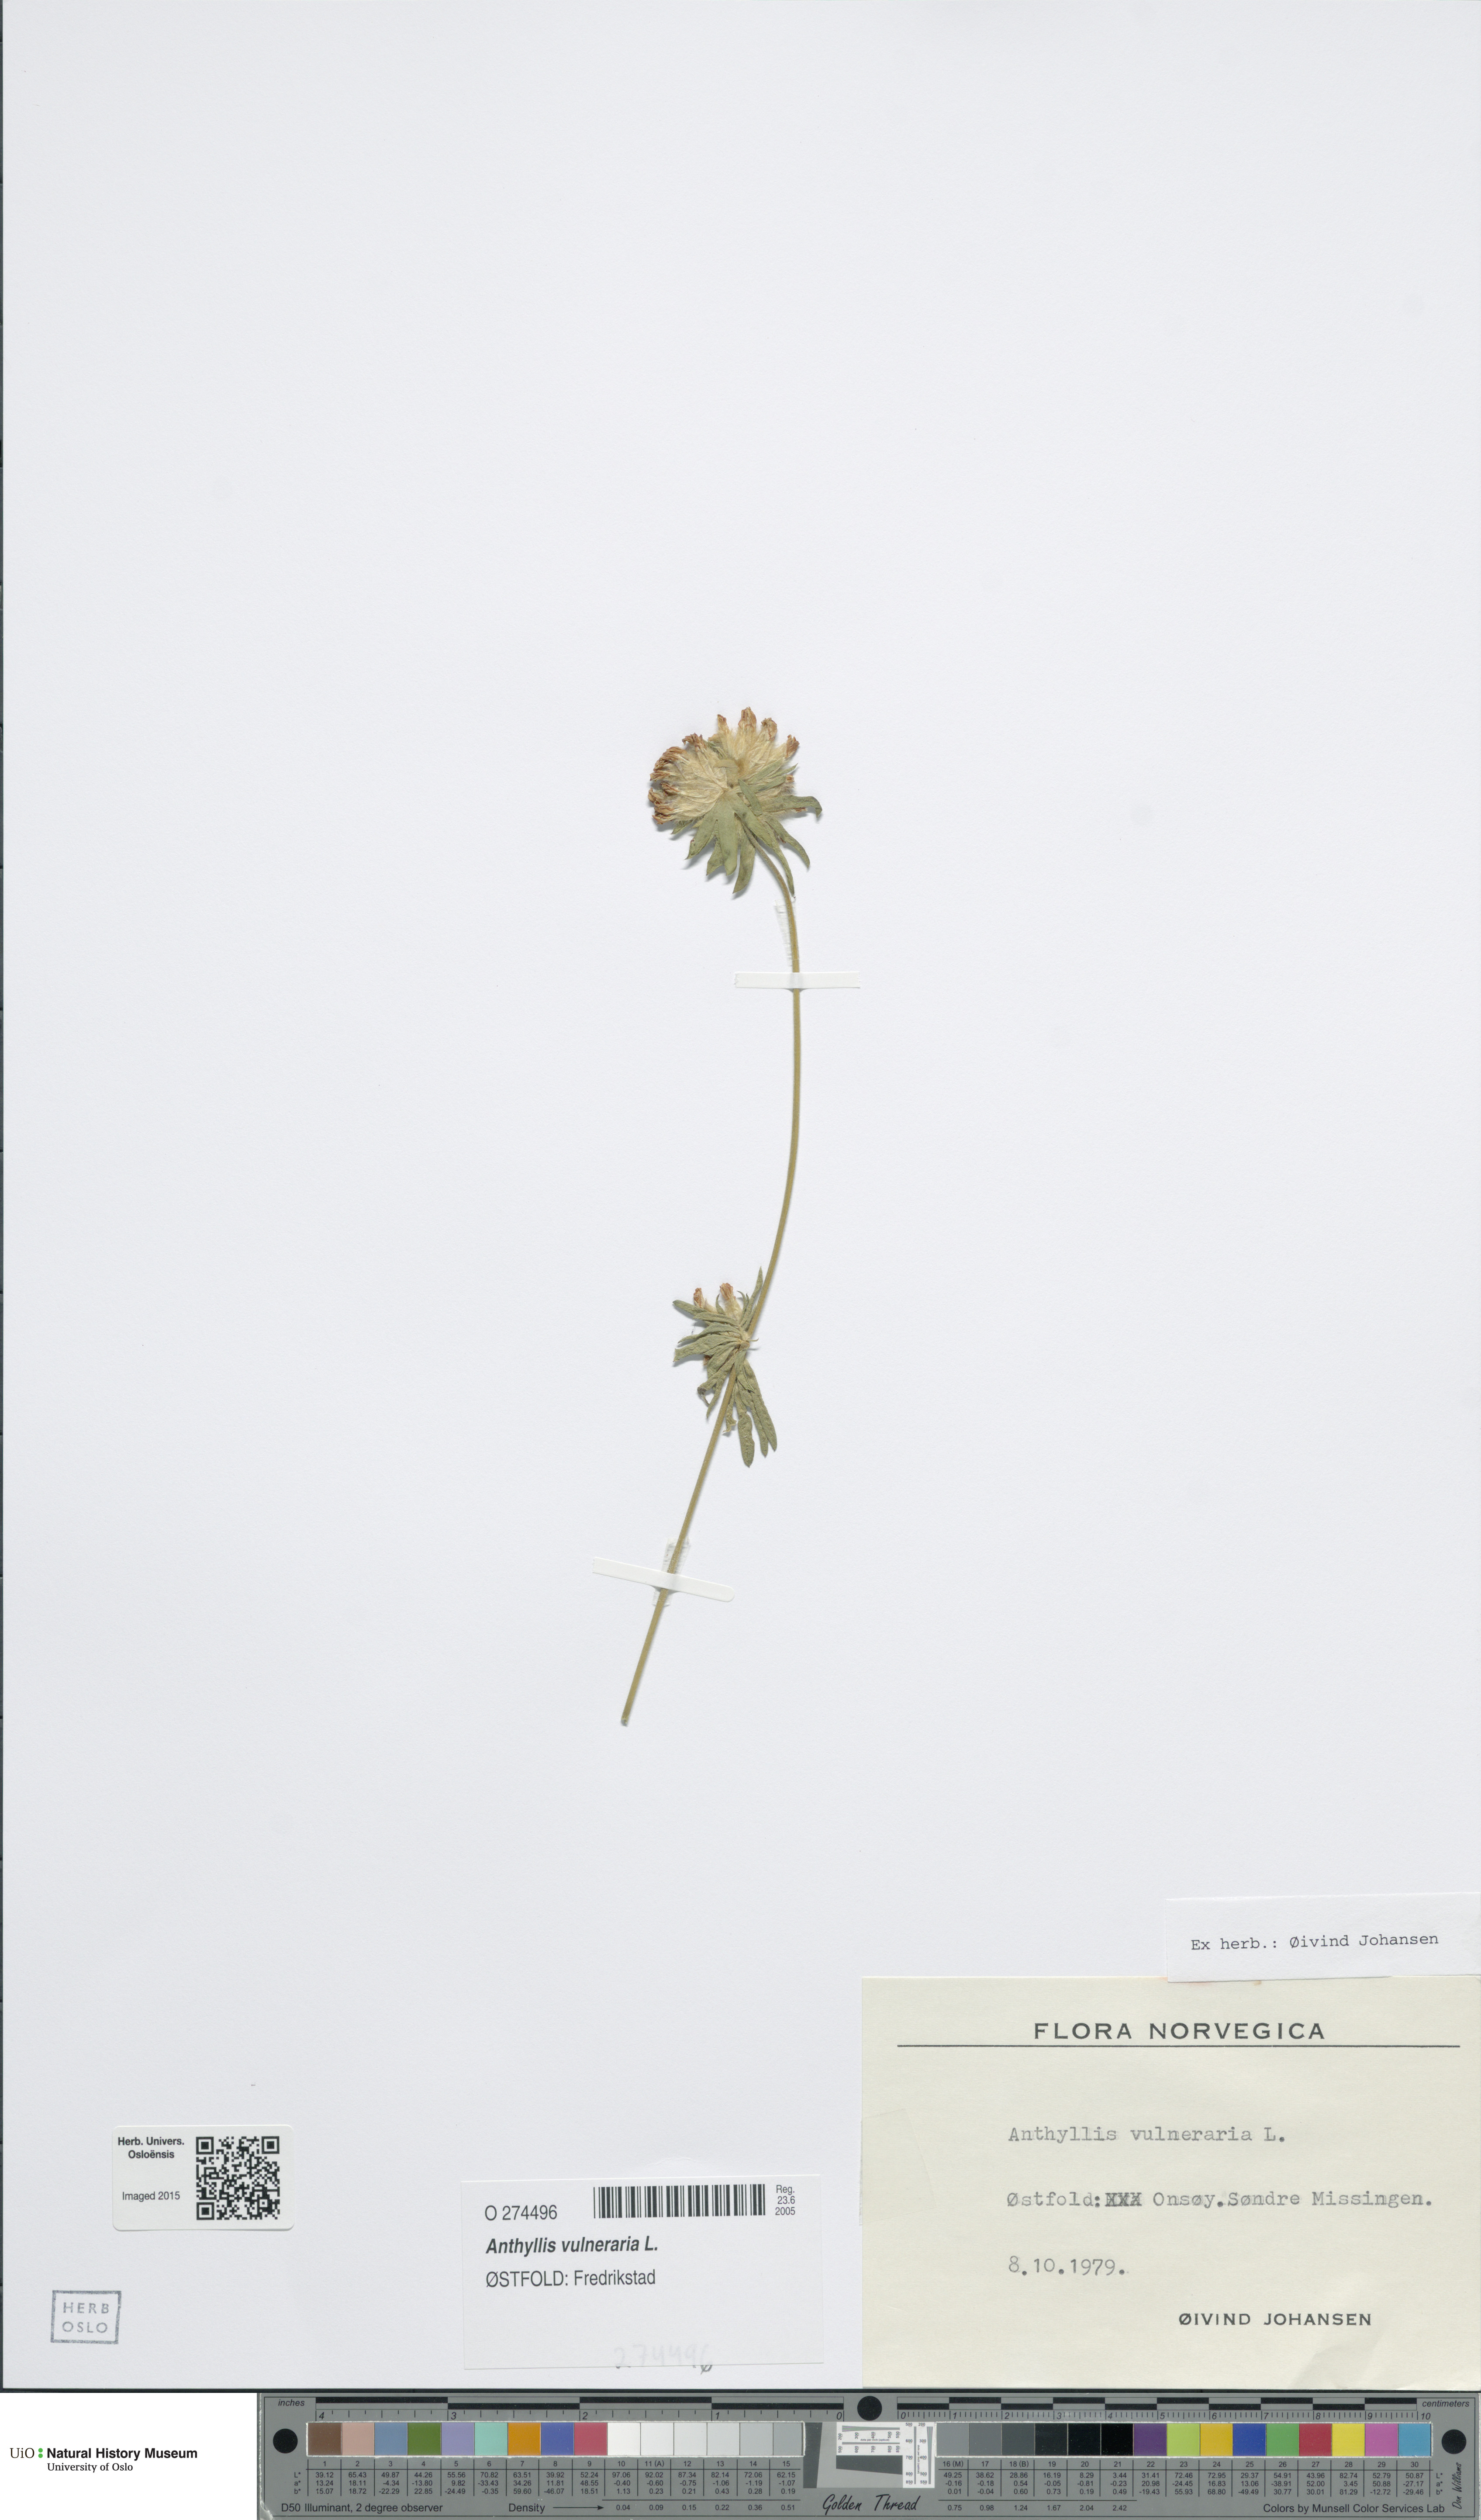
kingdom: Plantae
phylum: Tracheophyta
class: Magnoliopsida
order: Fabales
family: Fabaceae
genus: Anthyllis
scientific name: Anthyllis vulneraria
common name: Kidney vetch
